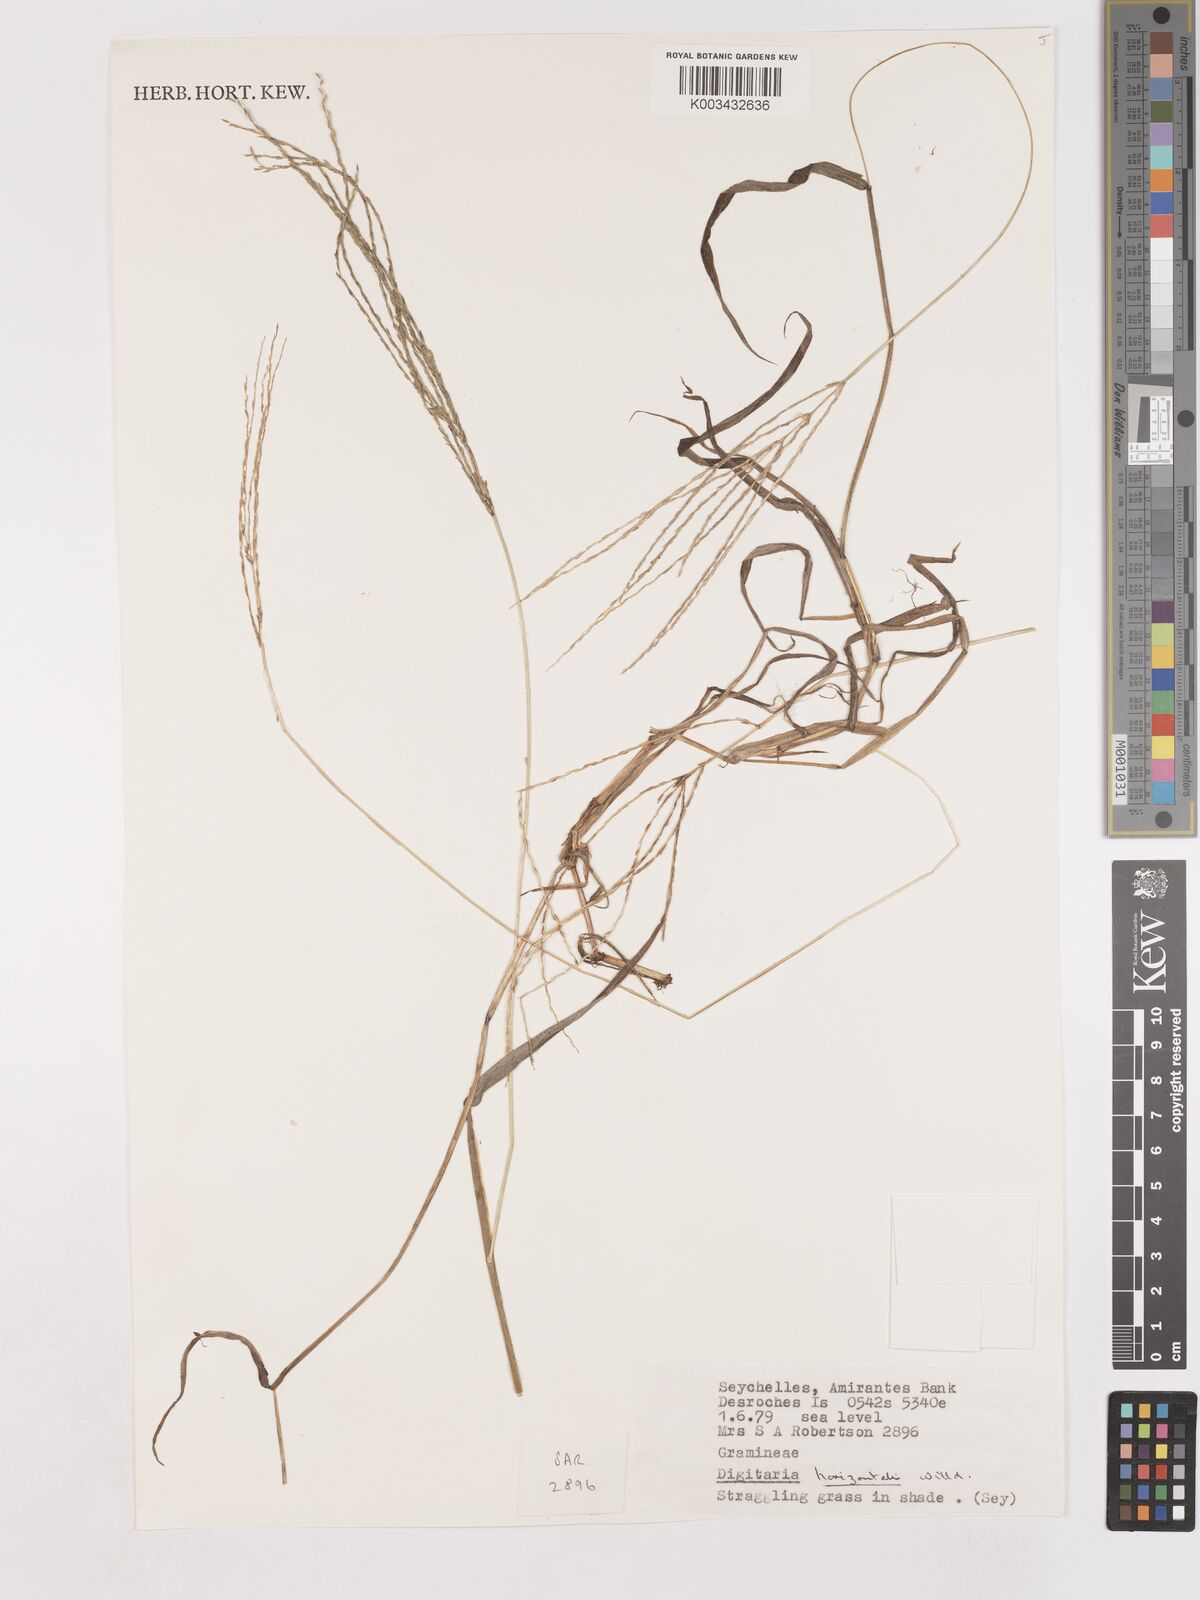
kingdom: Plantae
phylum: Tracheophyta
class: Liliopsida
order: Poales
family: Poaceae
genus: Digitaria
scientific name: Digitaria horizontalis
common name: Jamaican crabgrass
